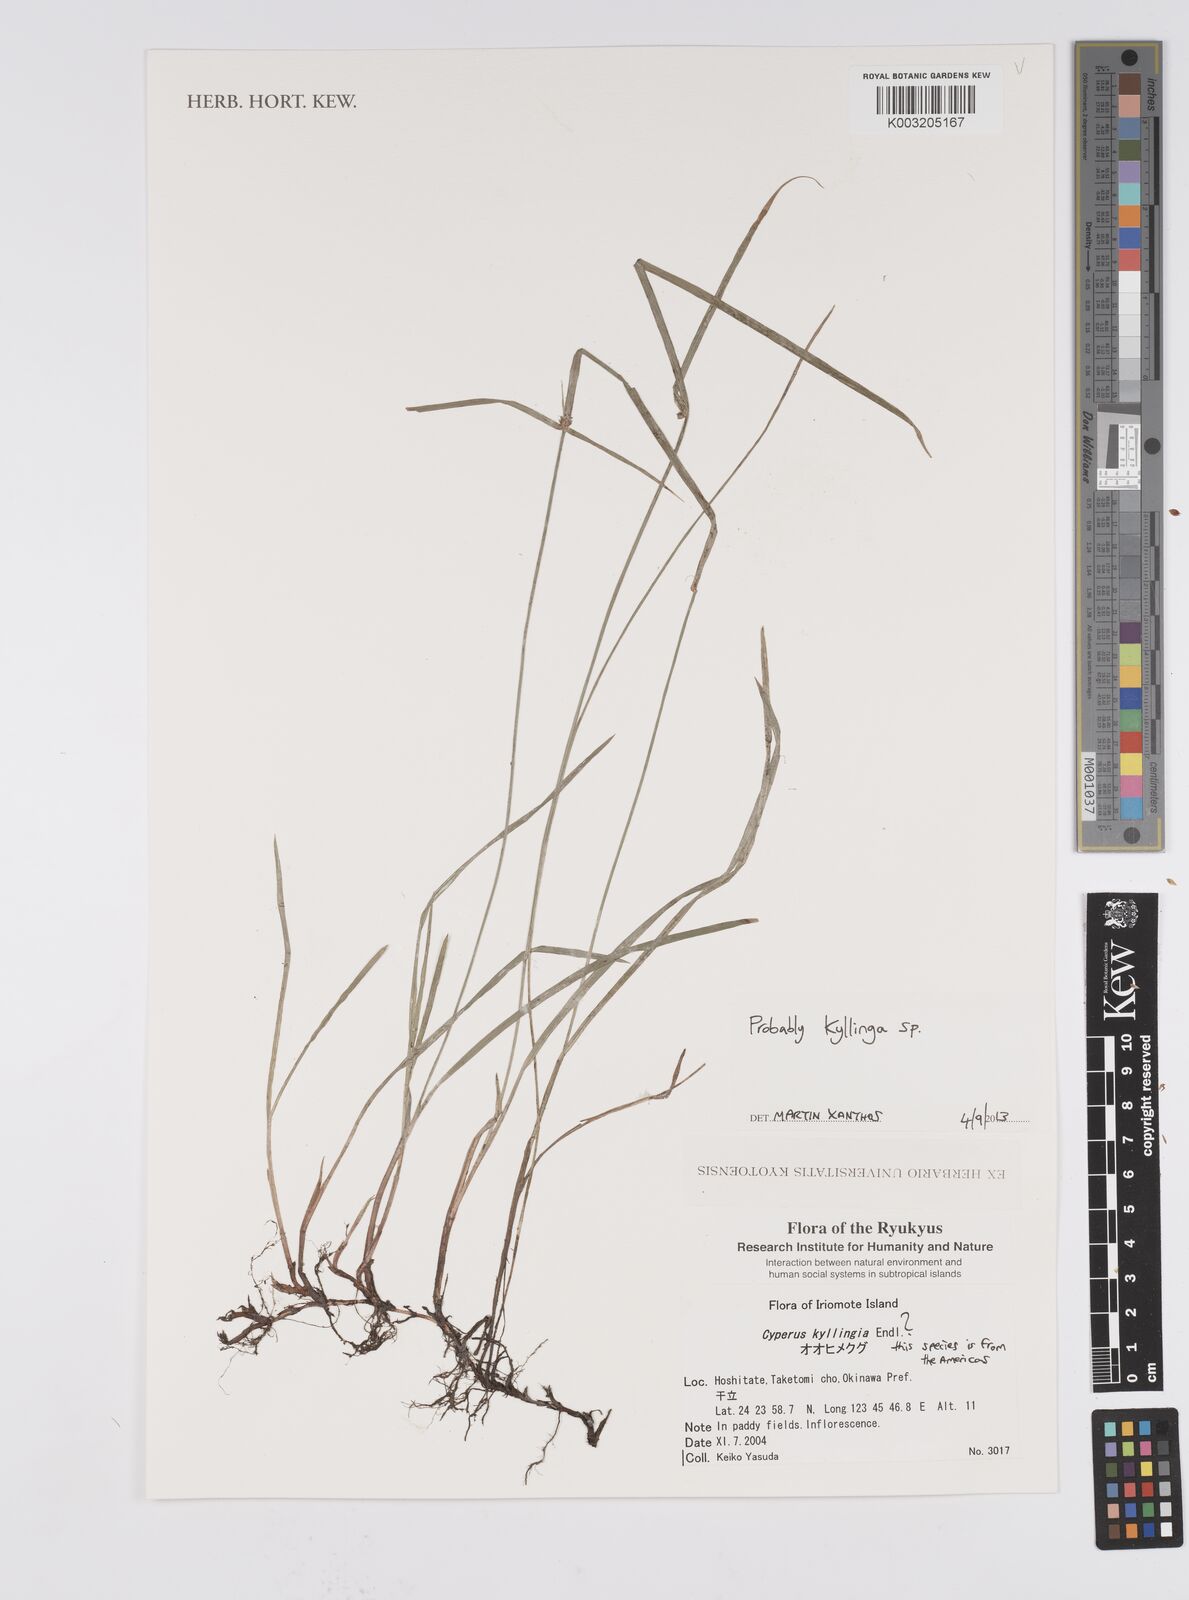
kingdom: Plantae
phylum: Tracheophyta
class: Liliopsida
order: Poales
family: Cyperaceae
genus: Cyperus
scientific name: Cyperus
